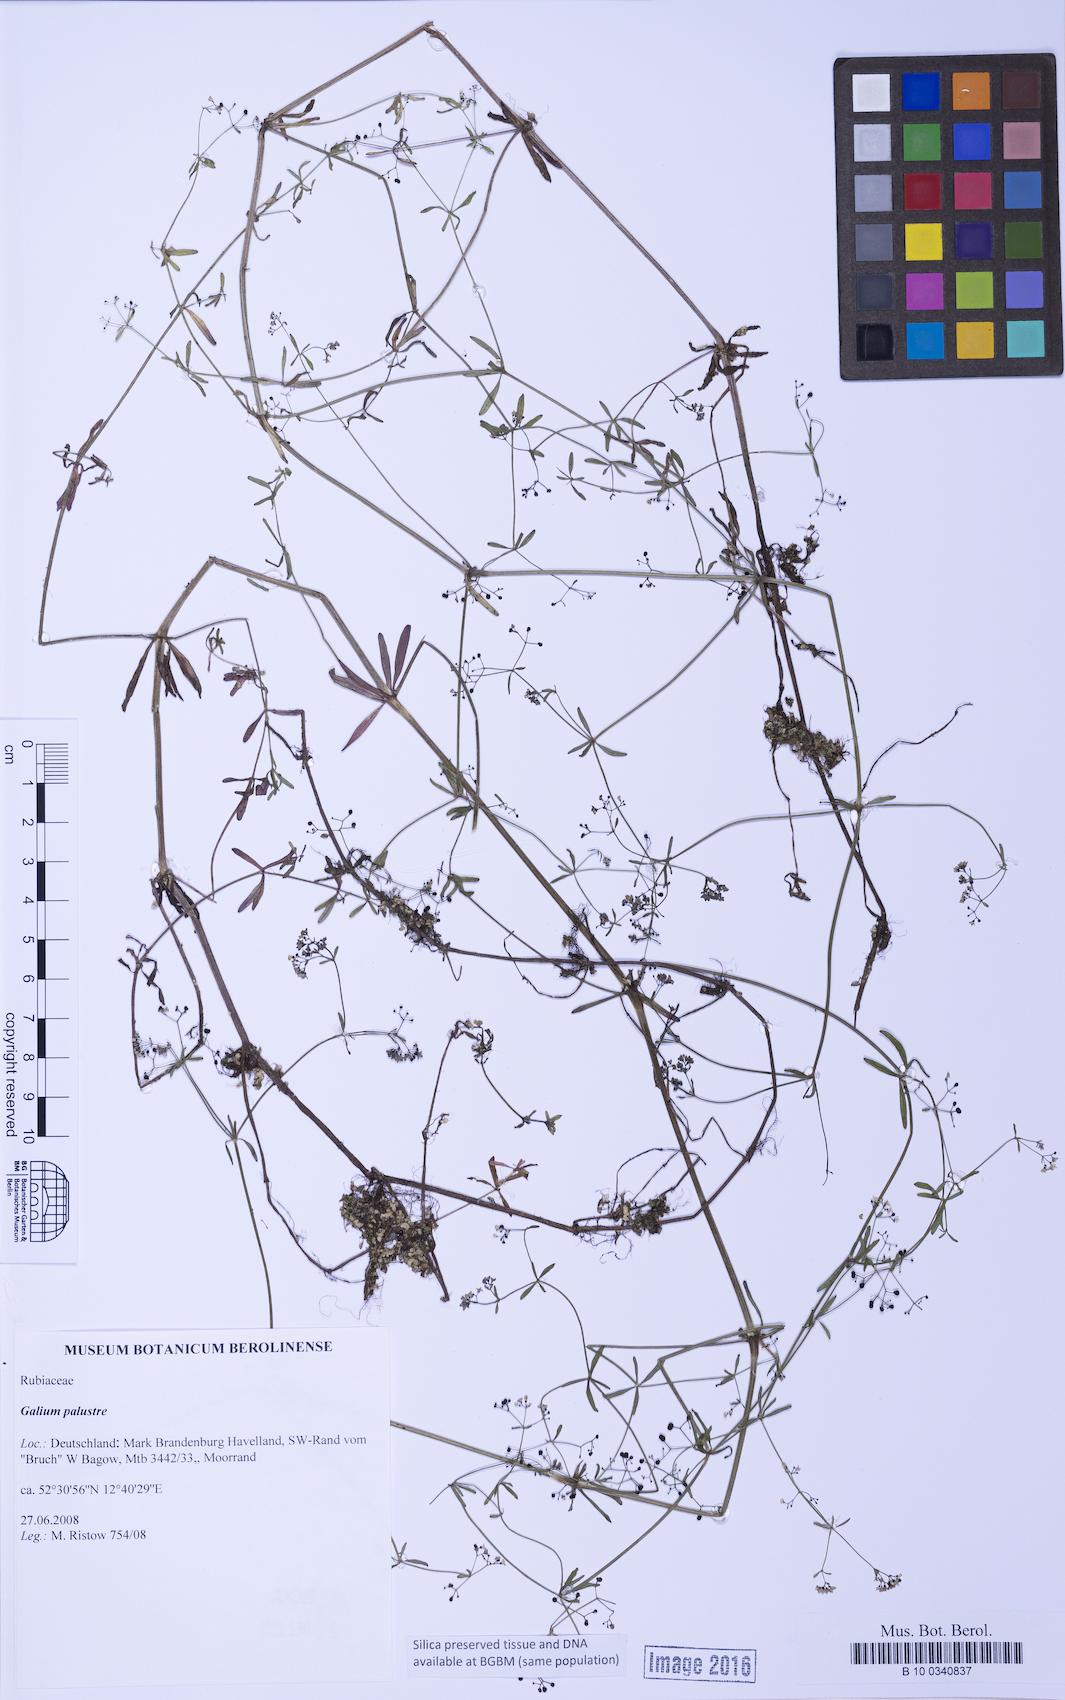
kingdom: Plantae
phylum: Tracheophyta
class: Magnoliopsida
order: Gentianales
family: Rubiaceae
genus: Galium
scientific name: Galium palustre
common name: Common marsh-bedstraw
